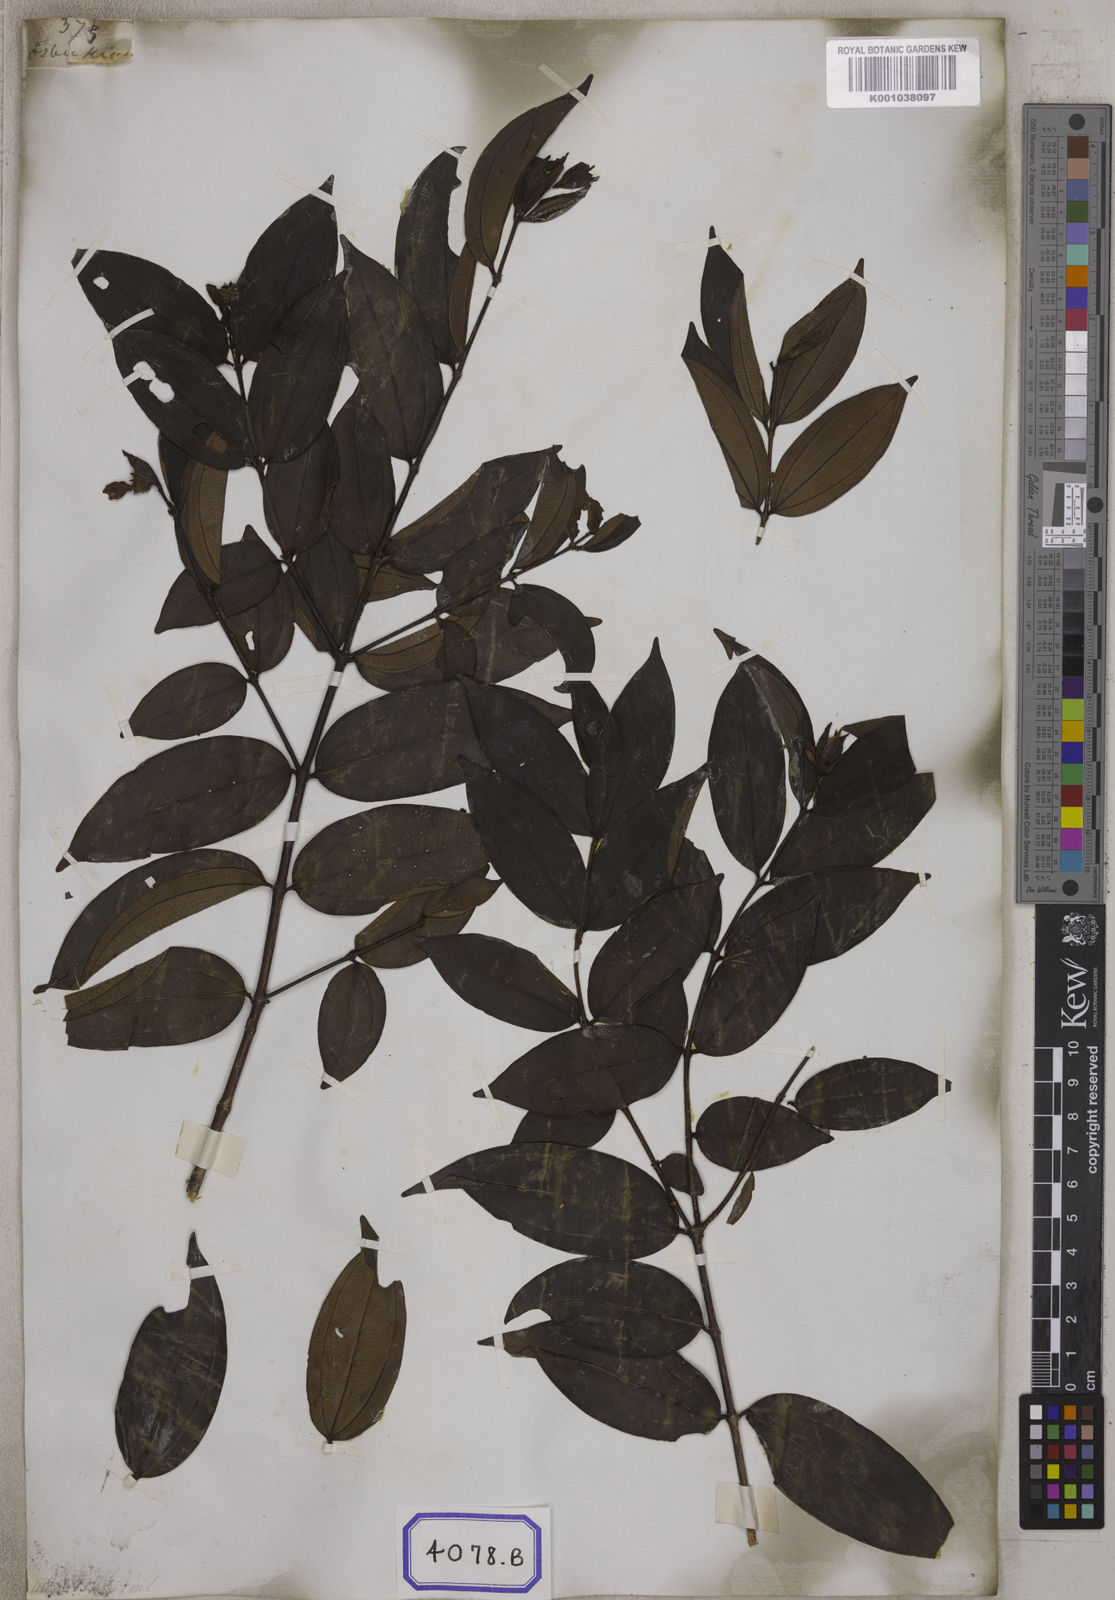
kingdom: Plantae
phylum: Tracheophyta
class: Magnoliopsida
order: Myrtales
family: Melastomataceae
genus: Pternandra
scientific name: Pternandra echinata
